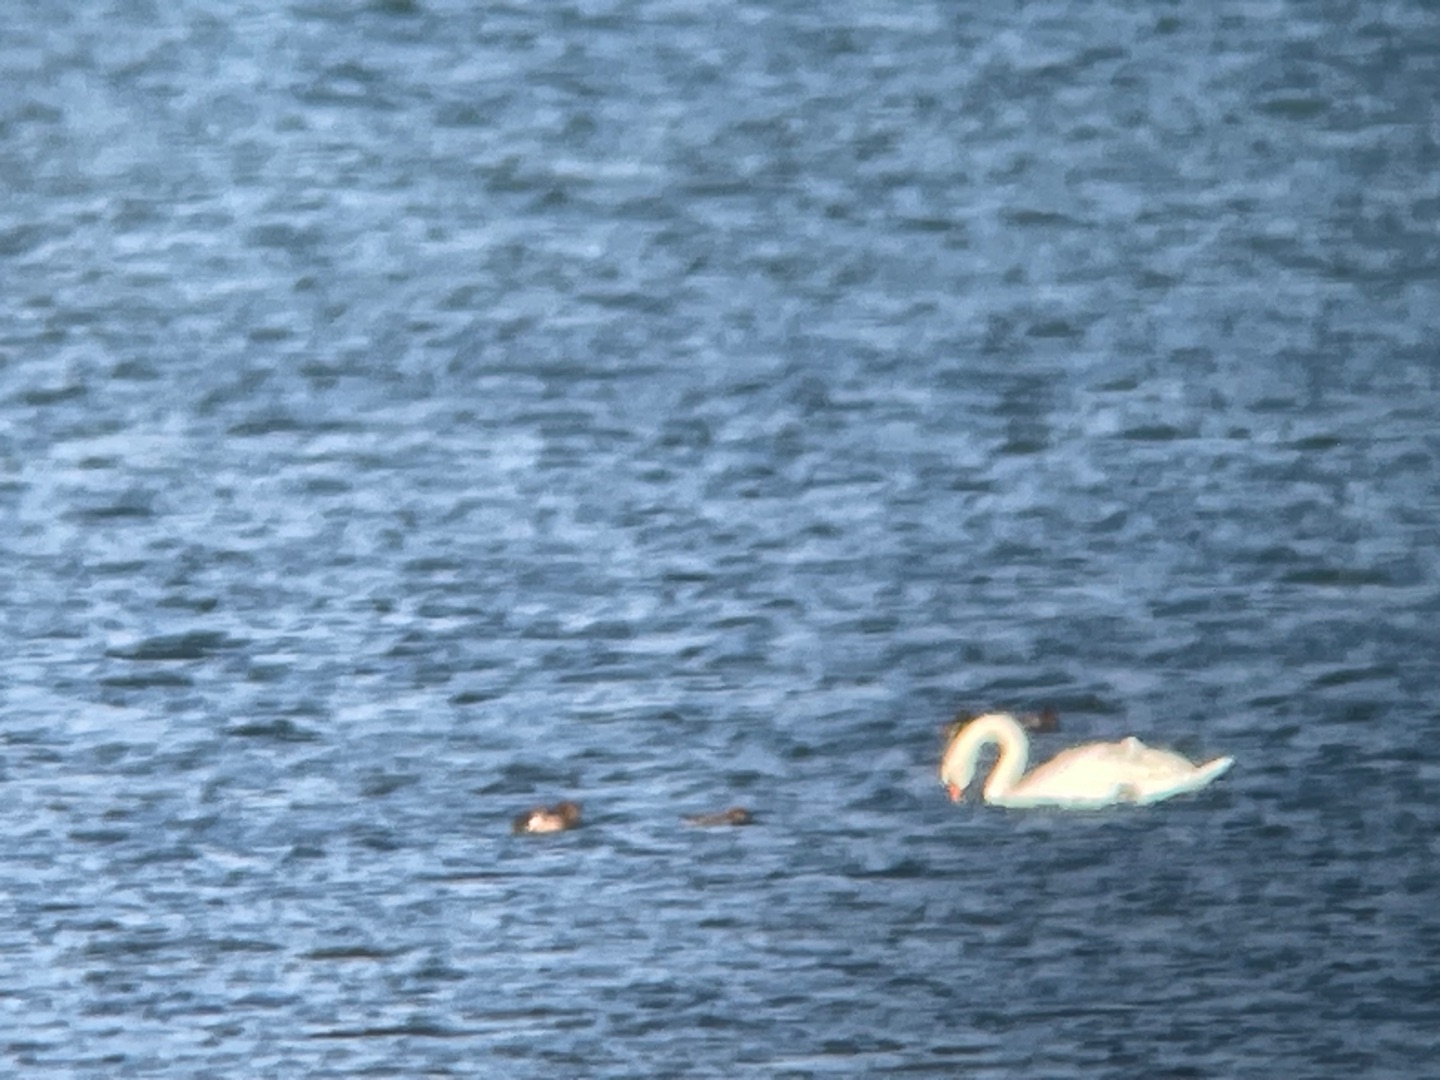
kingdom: Animalia
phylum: Chordata
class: Aves
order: Anseriformes
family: Anatidae
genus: Cygnus
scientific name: Cygnus olor
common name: Knopsvane
